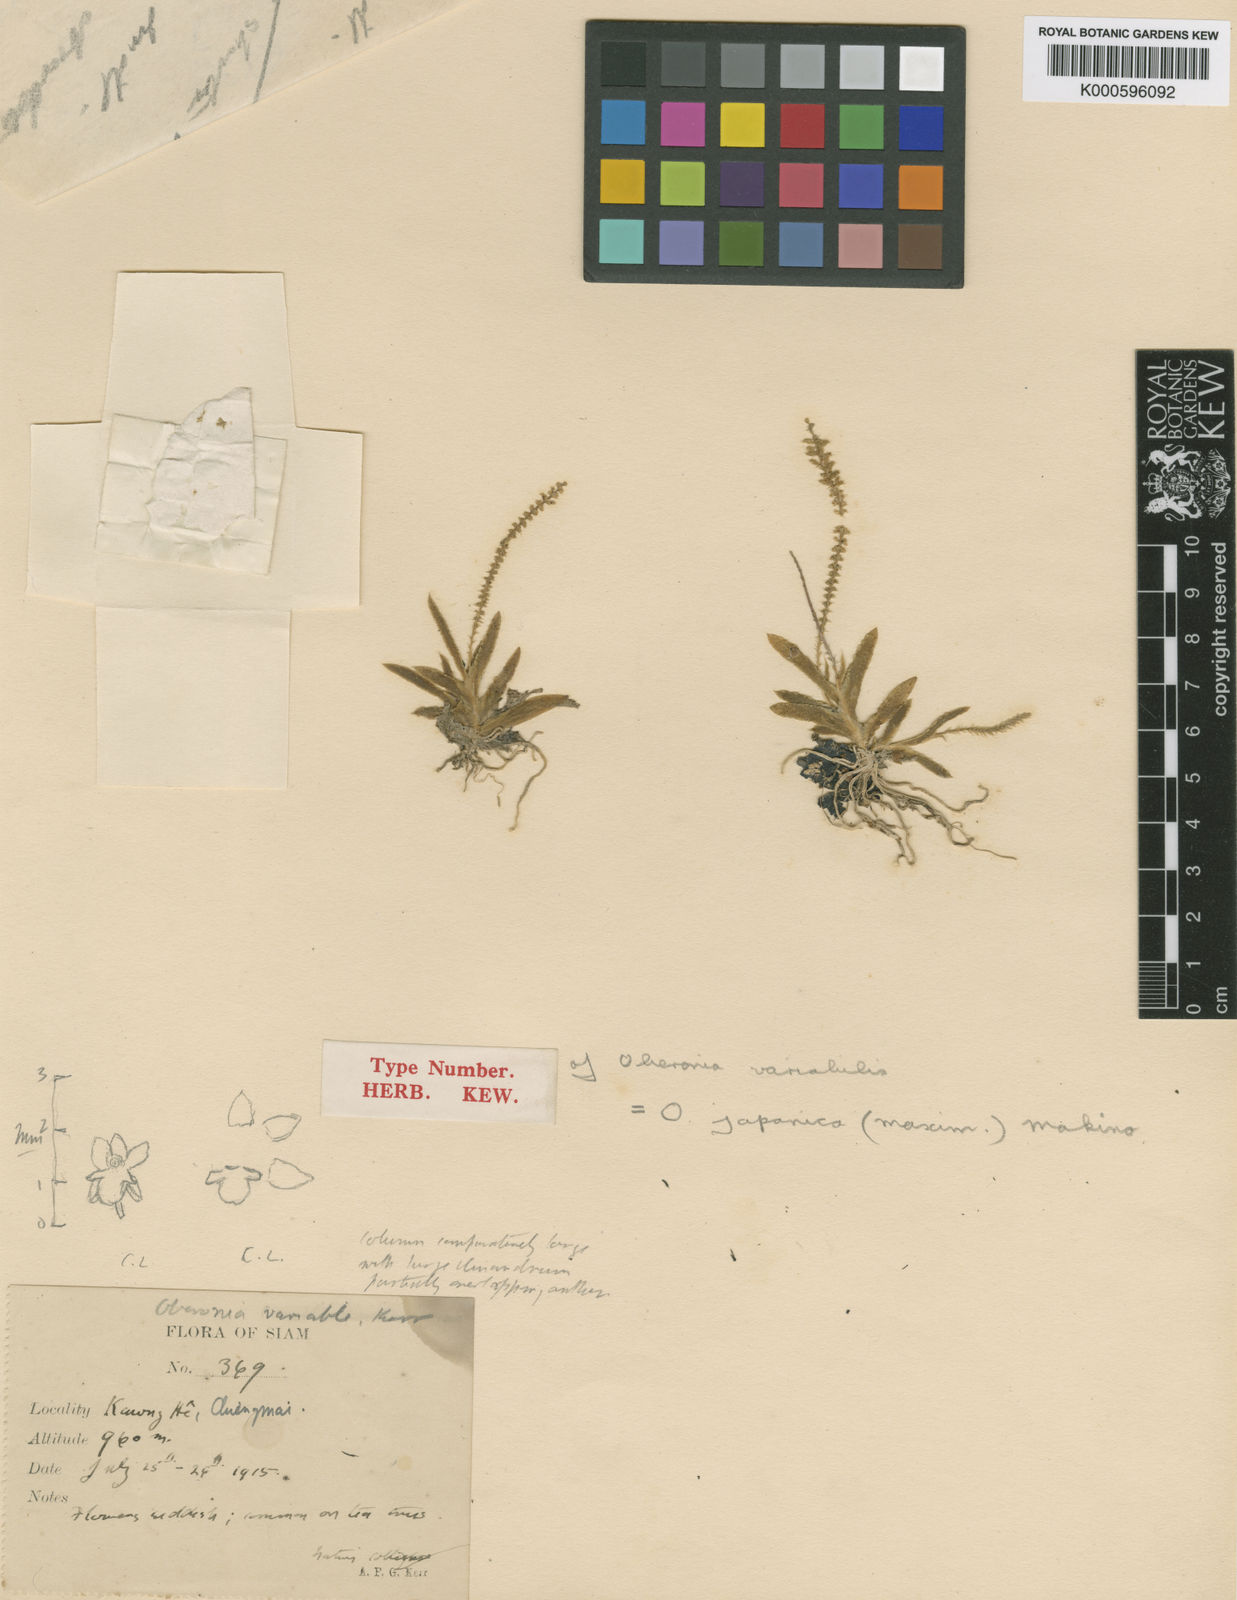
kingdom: Plantae
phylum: Tracheophyta
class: Liliopsida
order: Asparagales
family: Orchidaceae
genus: Oberonia
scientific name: Oberonia japonica
